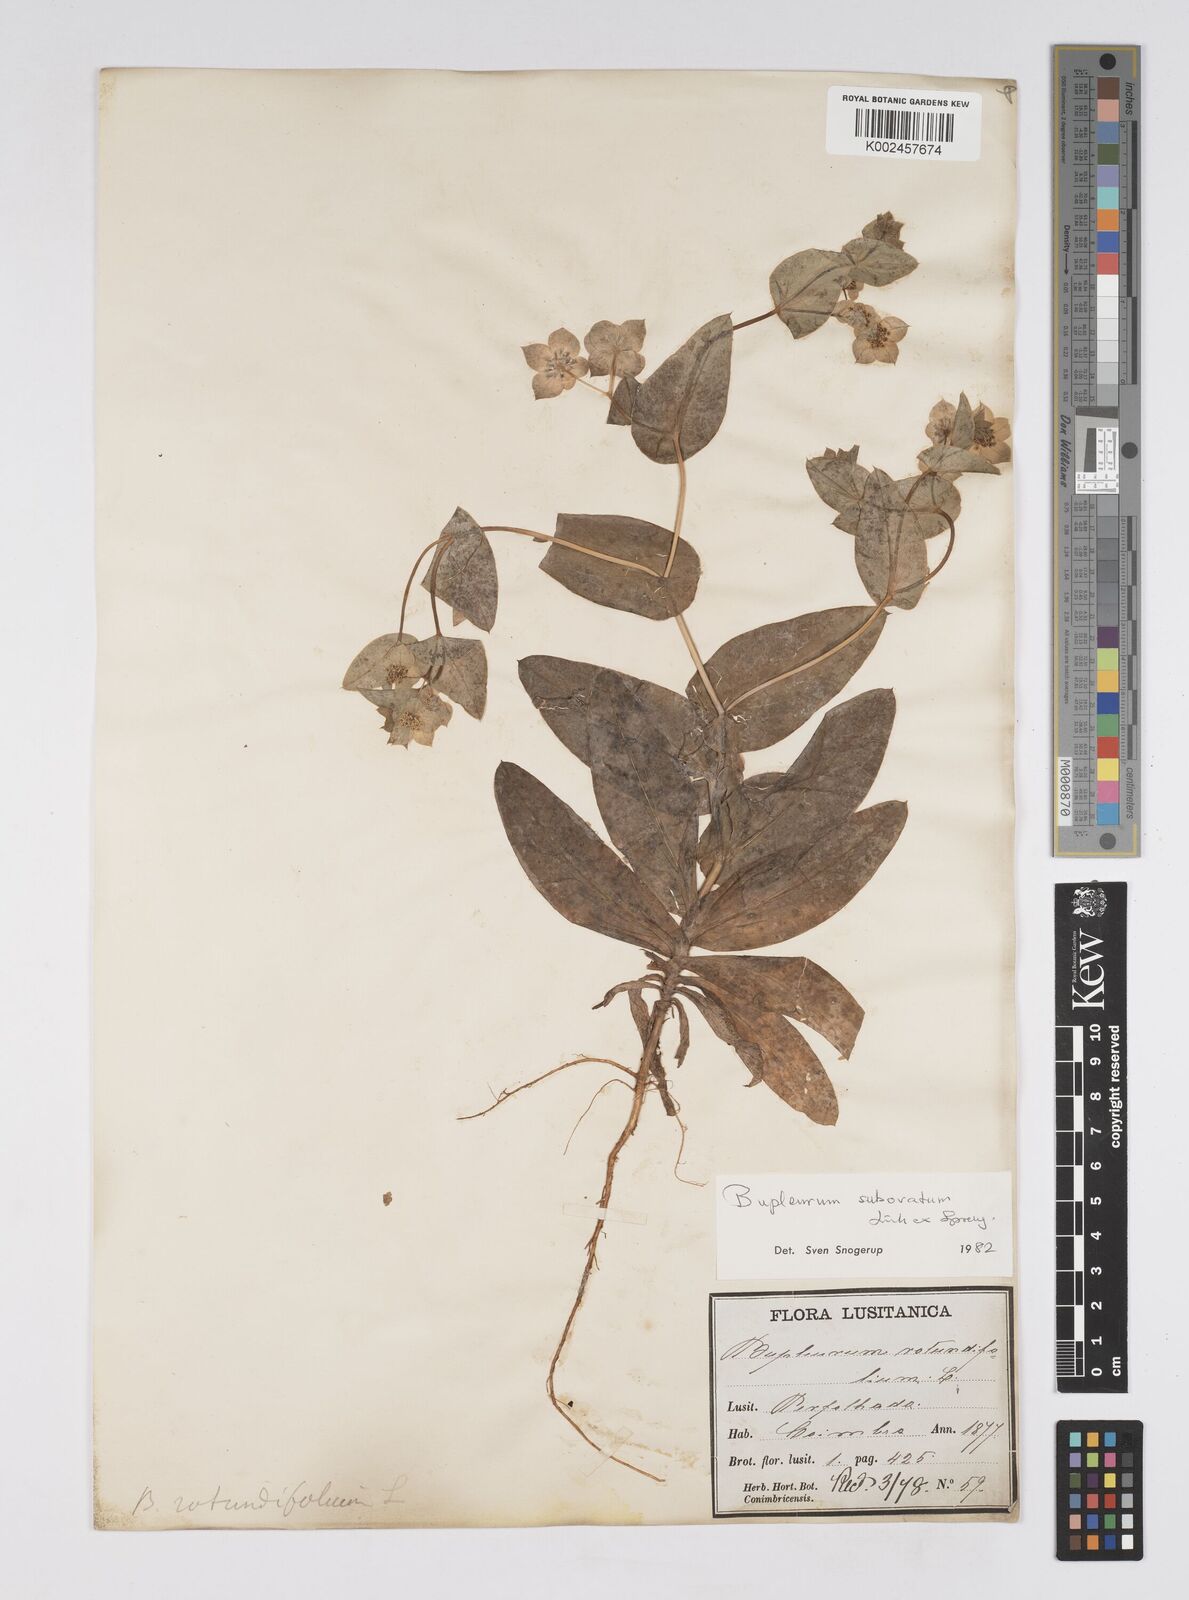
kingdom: Plantae
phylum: Tracheophyta
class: Magnoliopsida
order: Apiales
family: Apiaceae
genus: Bupleurum
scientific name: Bupleurum lancifolium
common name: False thorow-wax
